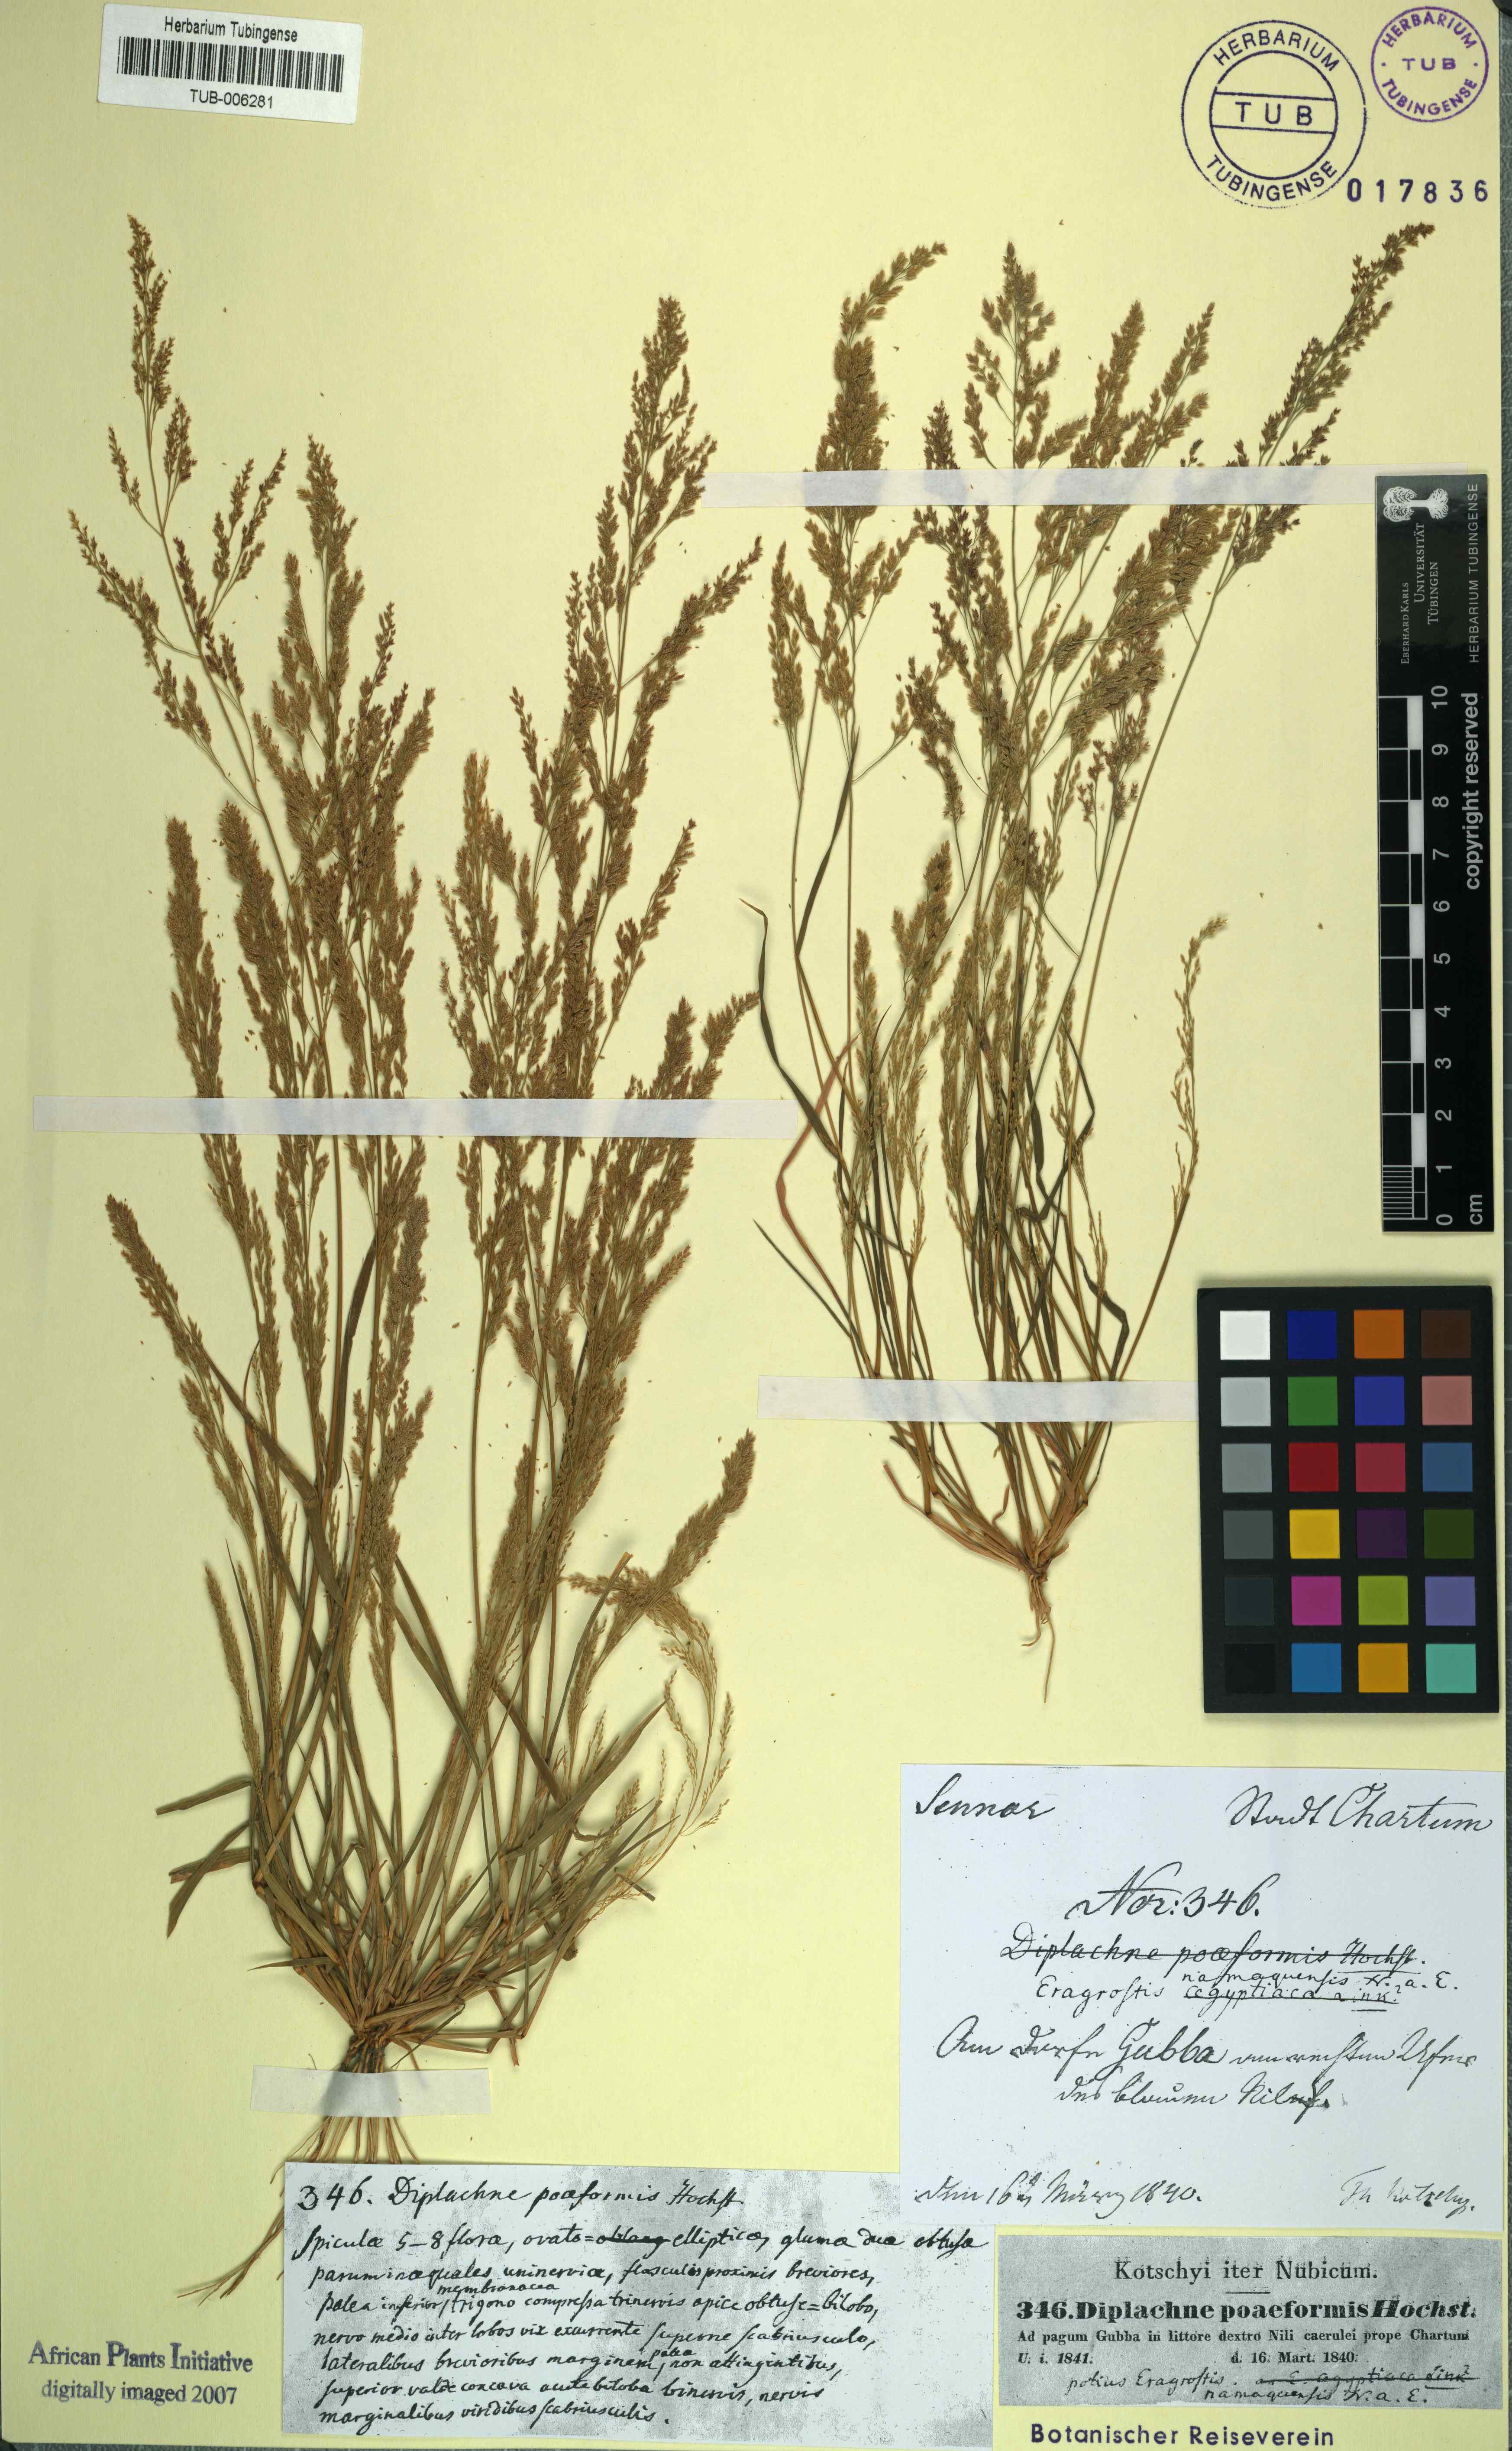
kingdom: Plantae
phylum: Tracheophyta
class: Liliopsida
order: Poales
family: Poaceae
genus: Eragrostis
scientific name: Eragrostis interrupta
